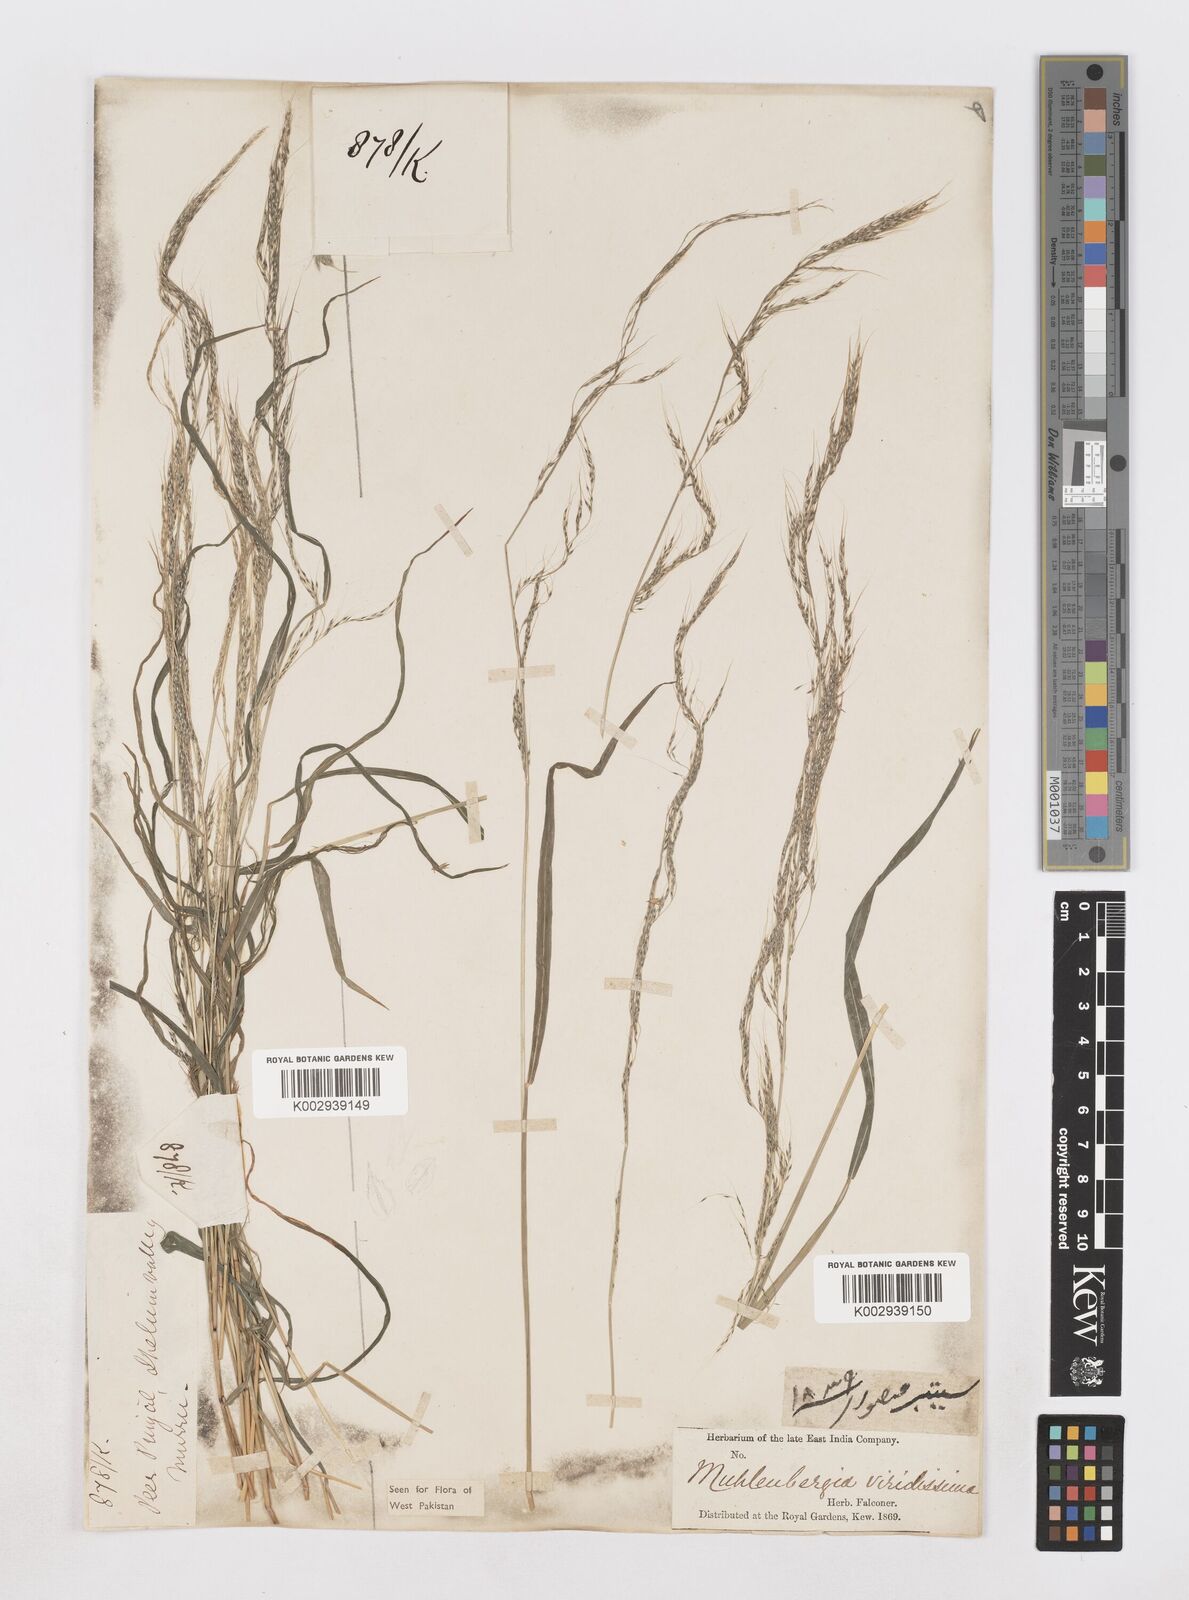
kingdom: Plantae
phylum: Tracheophyta
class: Liliopsida
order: Poales
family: Poaceae
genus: Muhlenbergia
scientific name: Muhlenbergia huegelii
